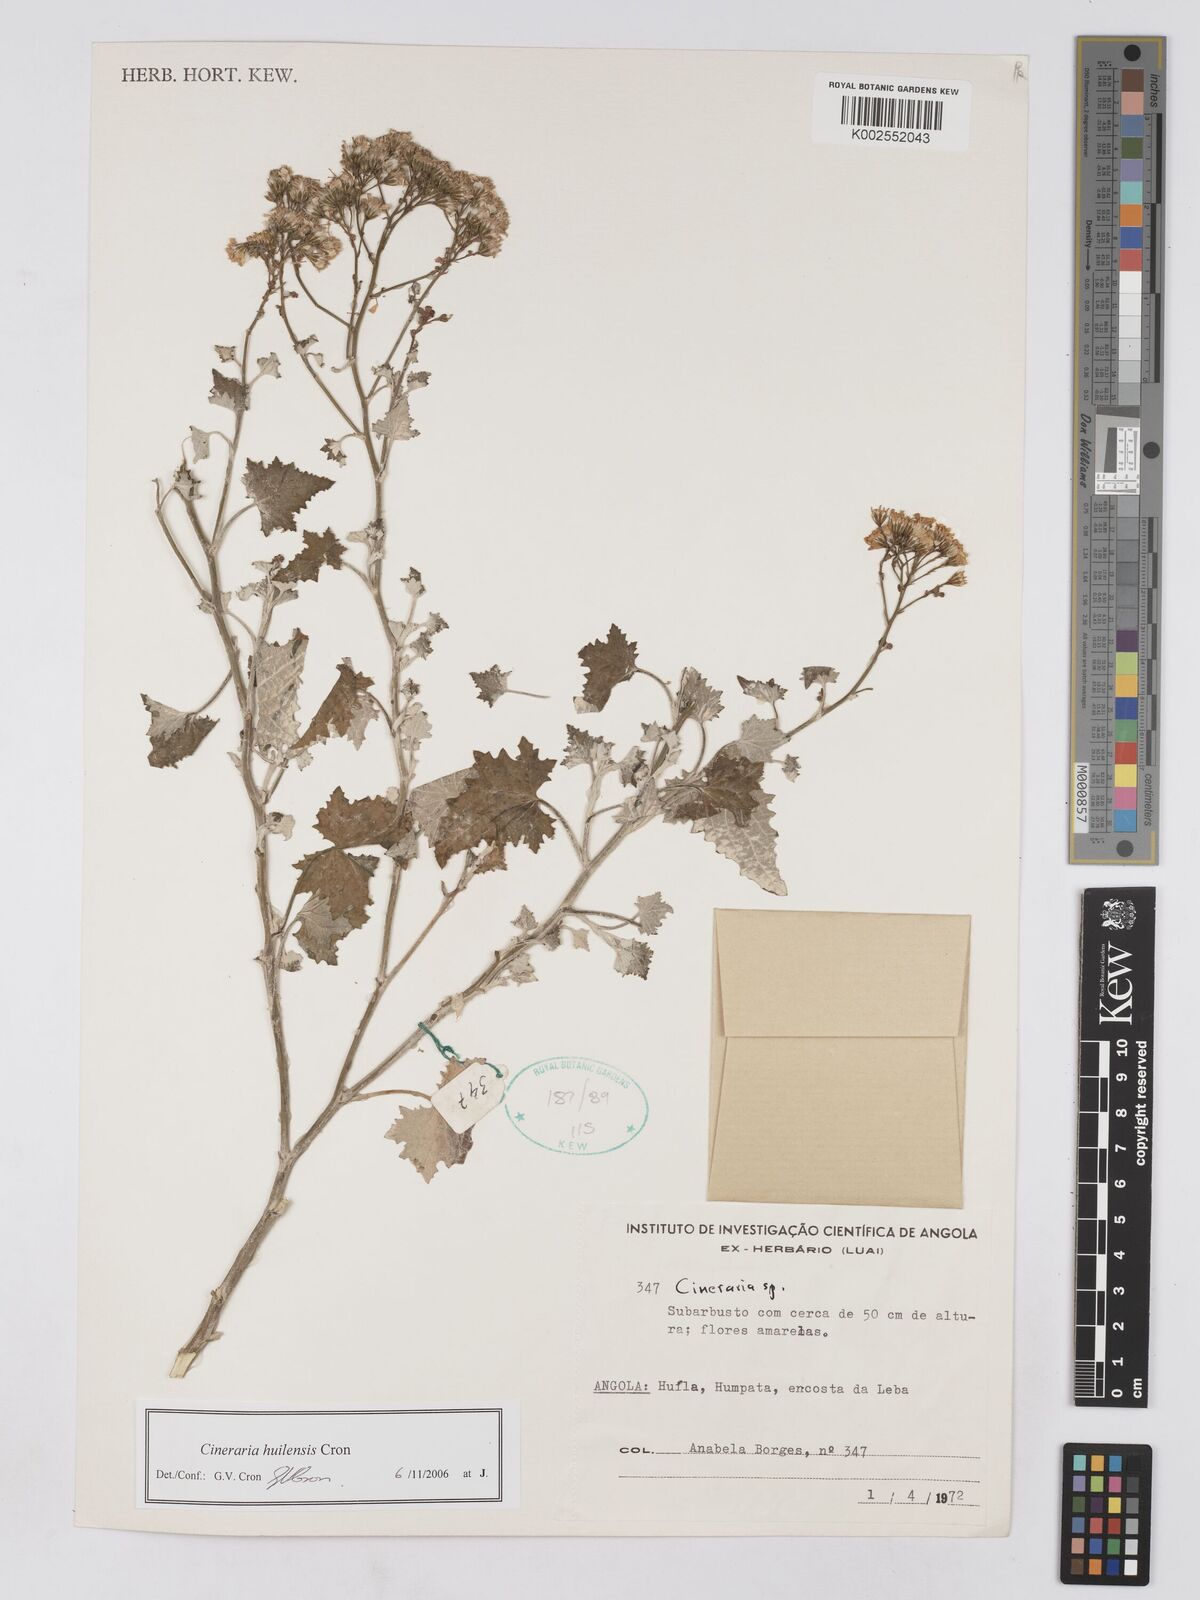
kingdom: Plantae
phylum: Tracheophyta
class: Magnoliopsida
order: Asterales
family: Asteraceae
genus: Cineraria
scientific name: Cineraria huilensis
